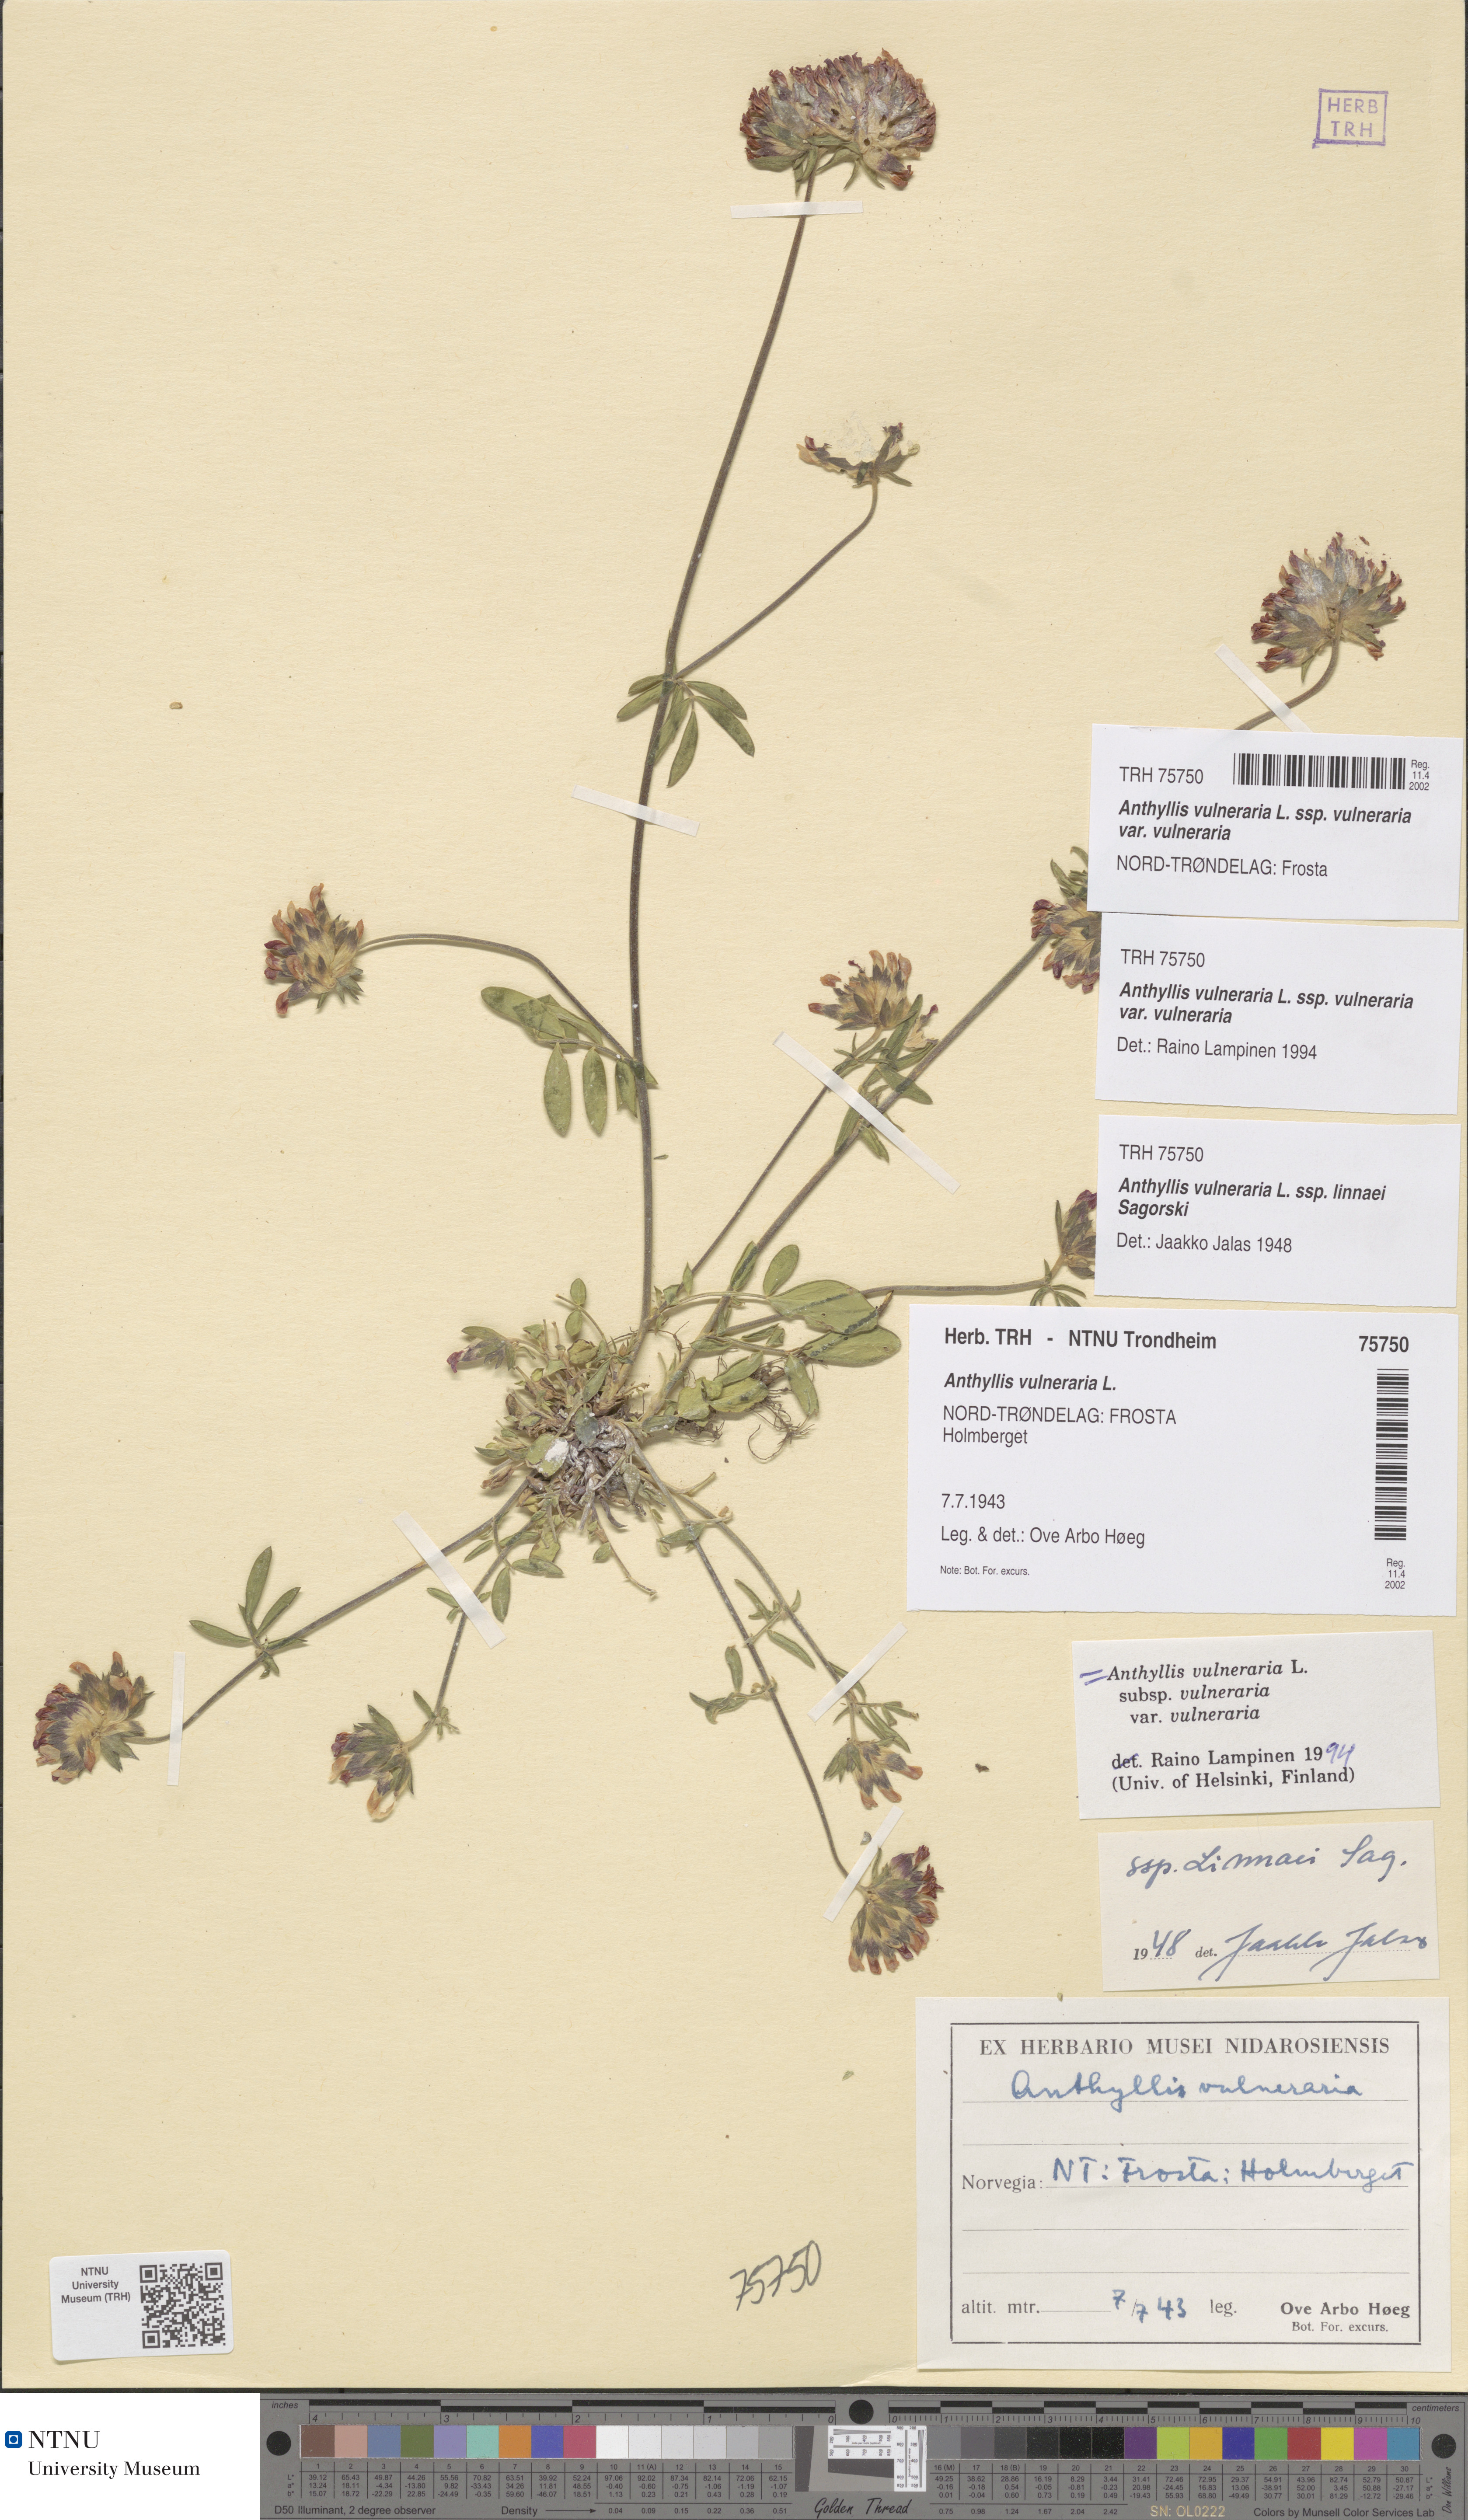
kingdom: Plantae
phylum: Tracheophyta
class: Magnoliopsida
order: Fabales
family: Fabaceae
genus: Anthyllis
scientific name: Anthyllis vulneraria
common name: Kidney vetch
